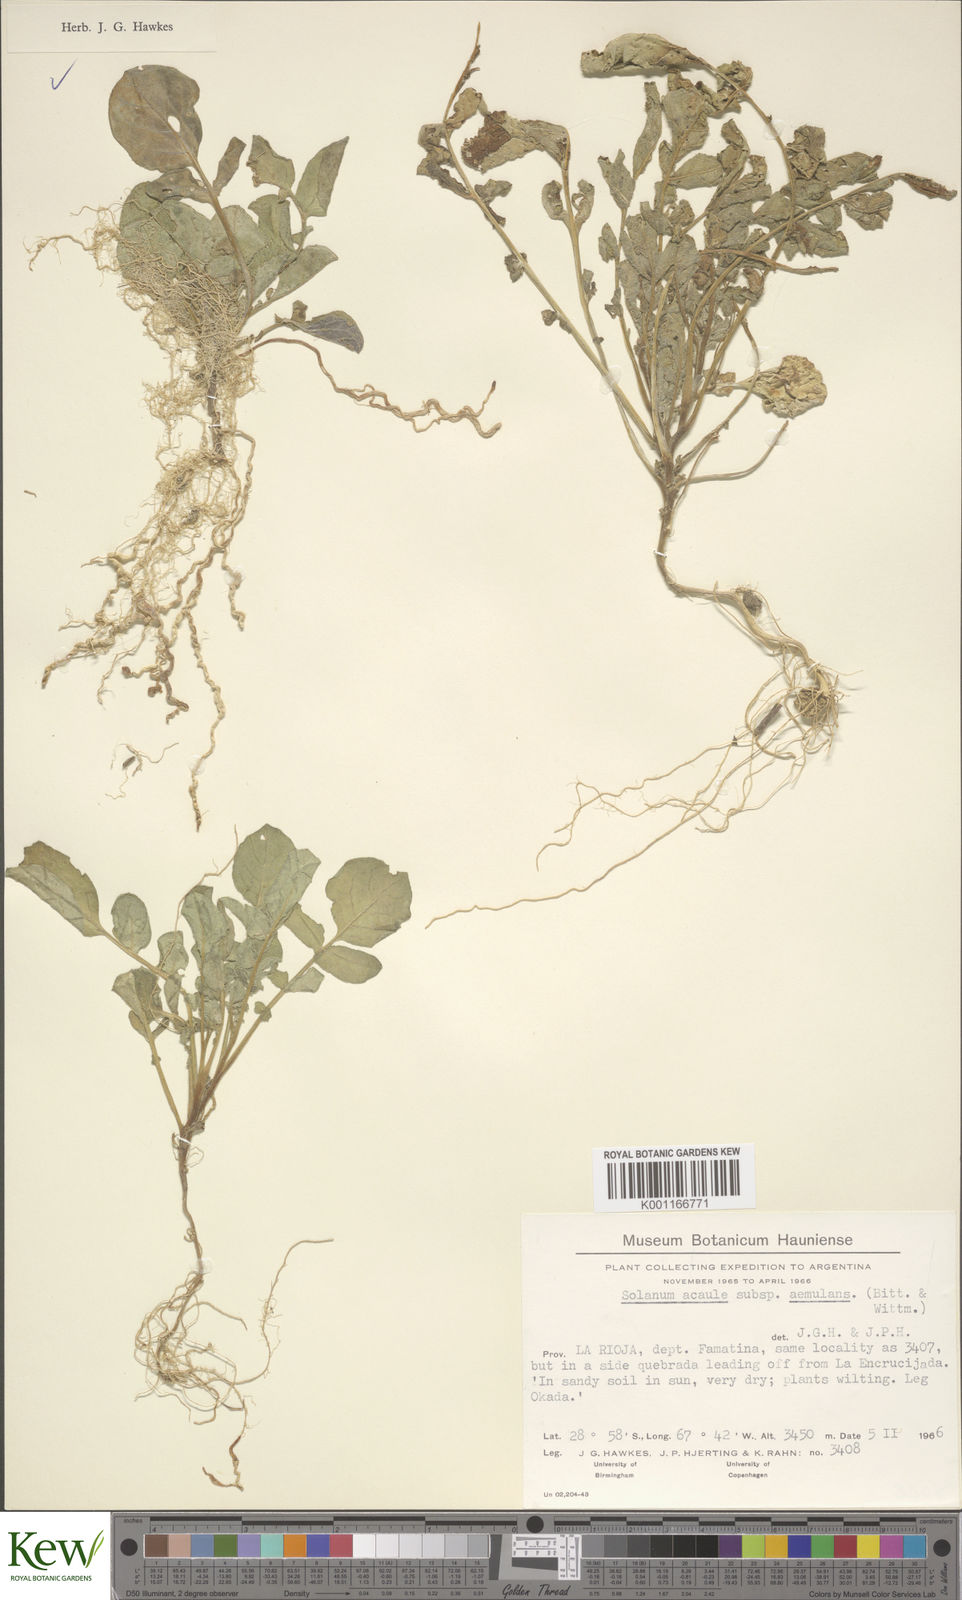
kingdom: Plantae
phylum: Tracheophyta
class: Magnoliopsida
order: Solanales
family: Solanaceae
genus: Solanum
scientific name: Solanum aemulans
